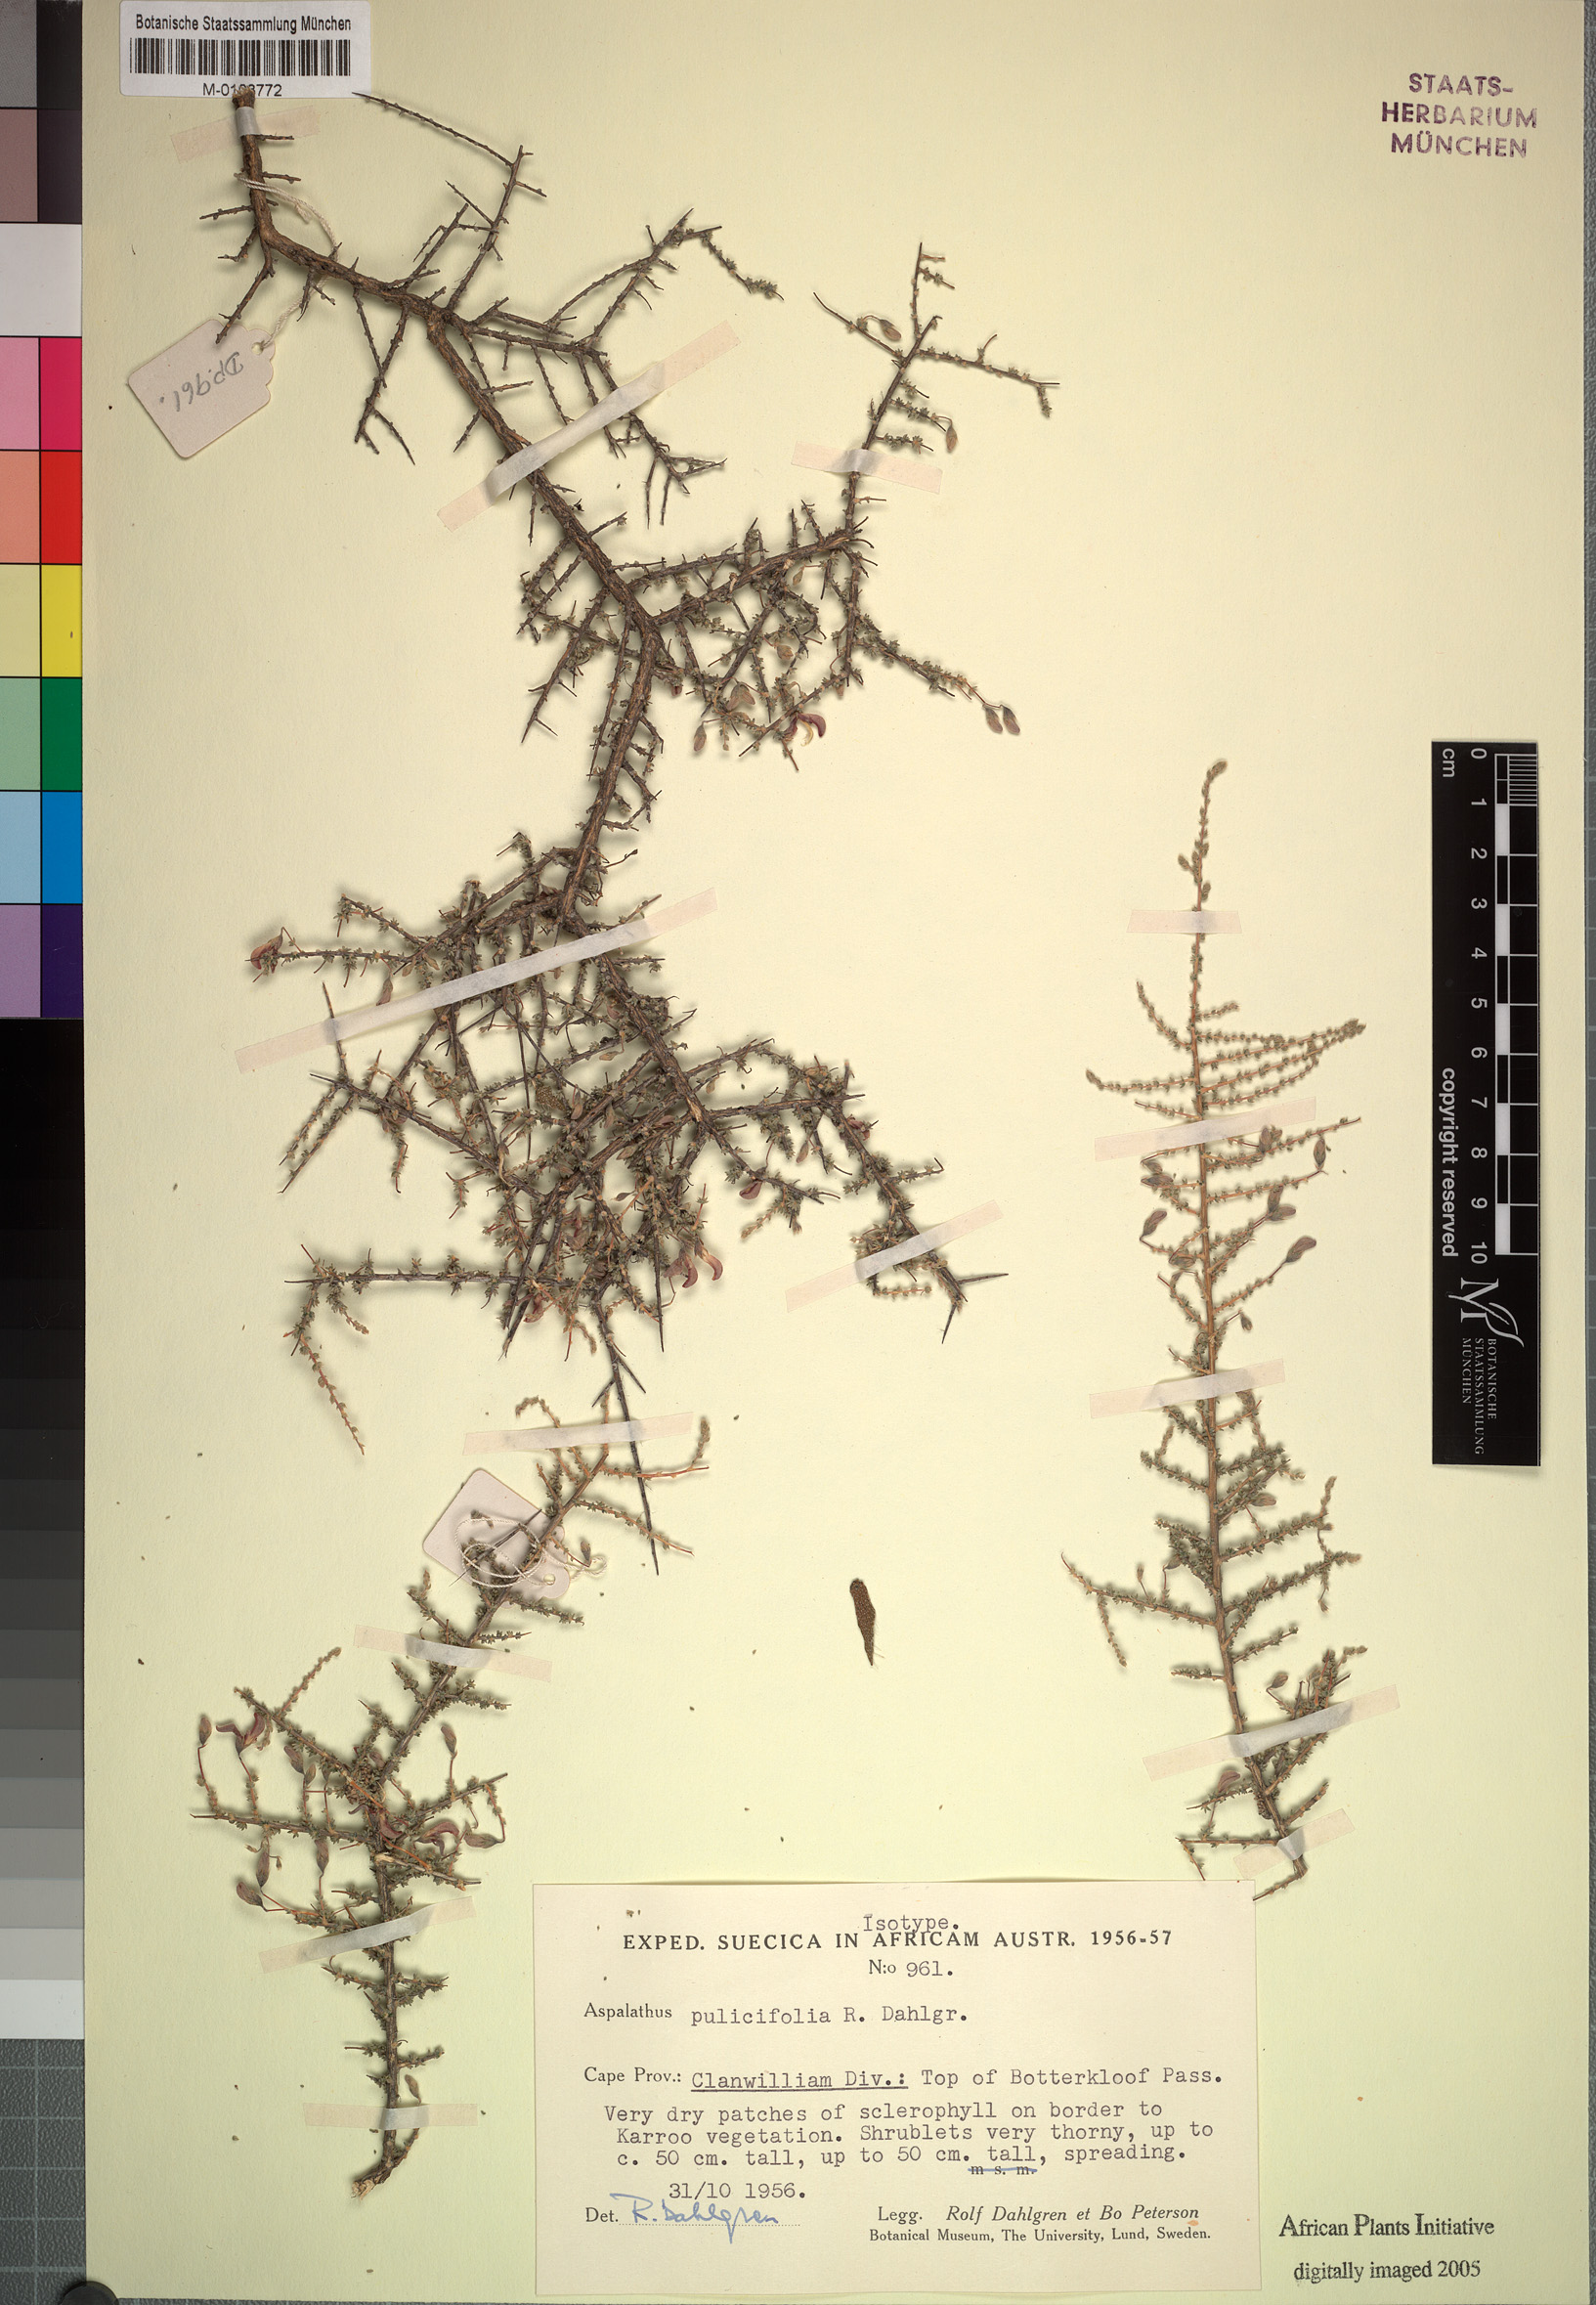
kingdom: Plantae
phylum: Tracheophyta
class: Magnoliopsida
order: Fabales
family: Fabaceae
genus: Aspalathus
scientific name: Aspalathus pulicifolia
